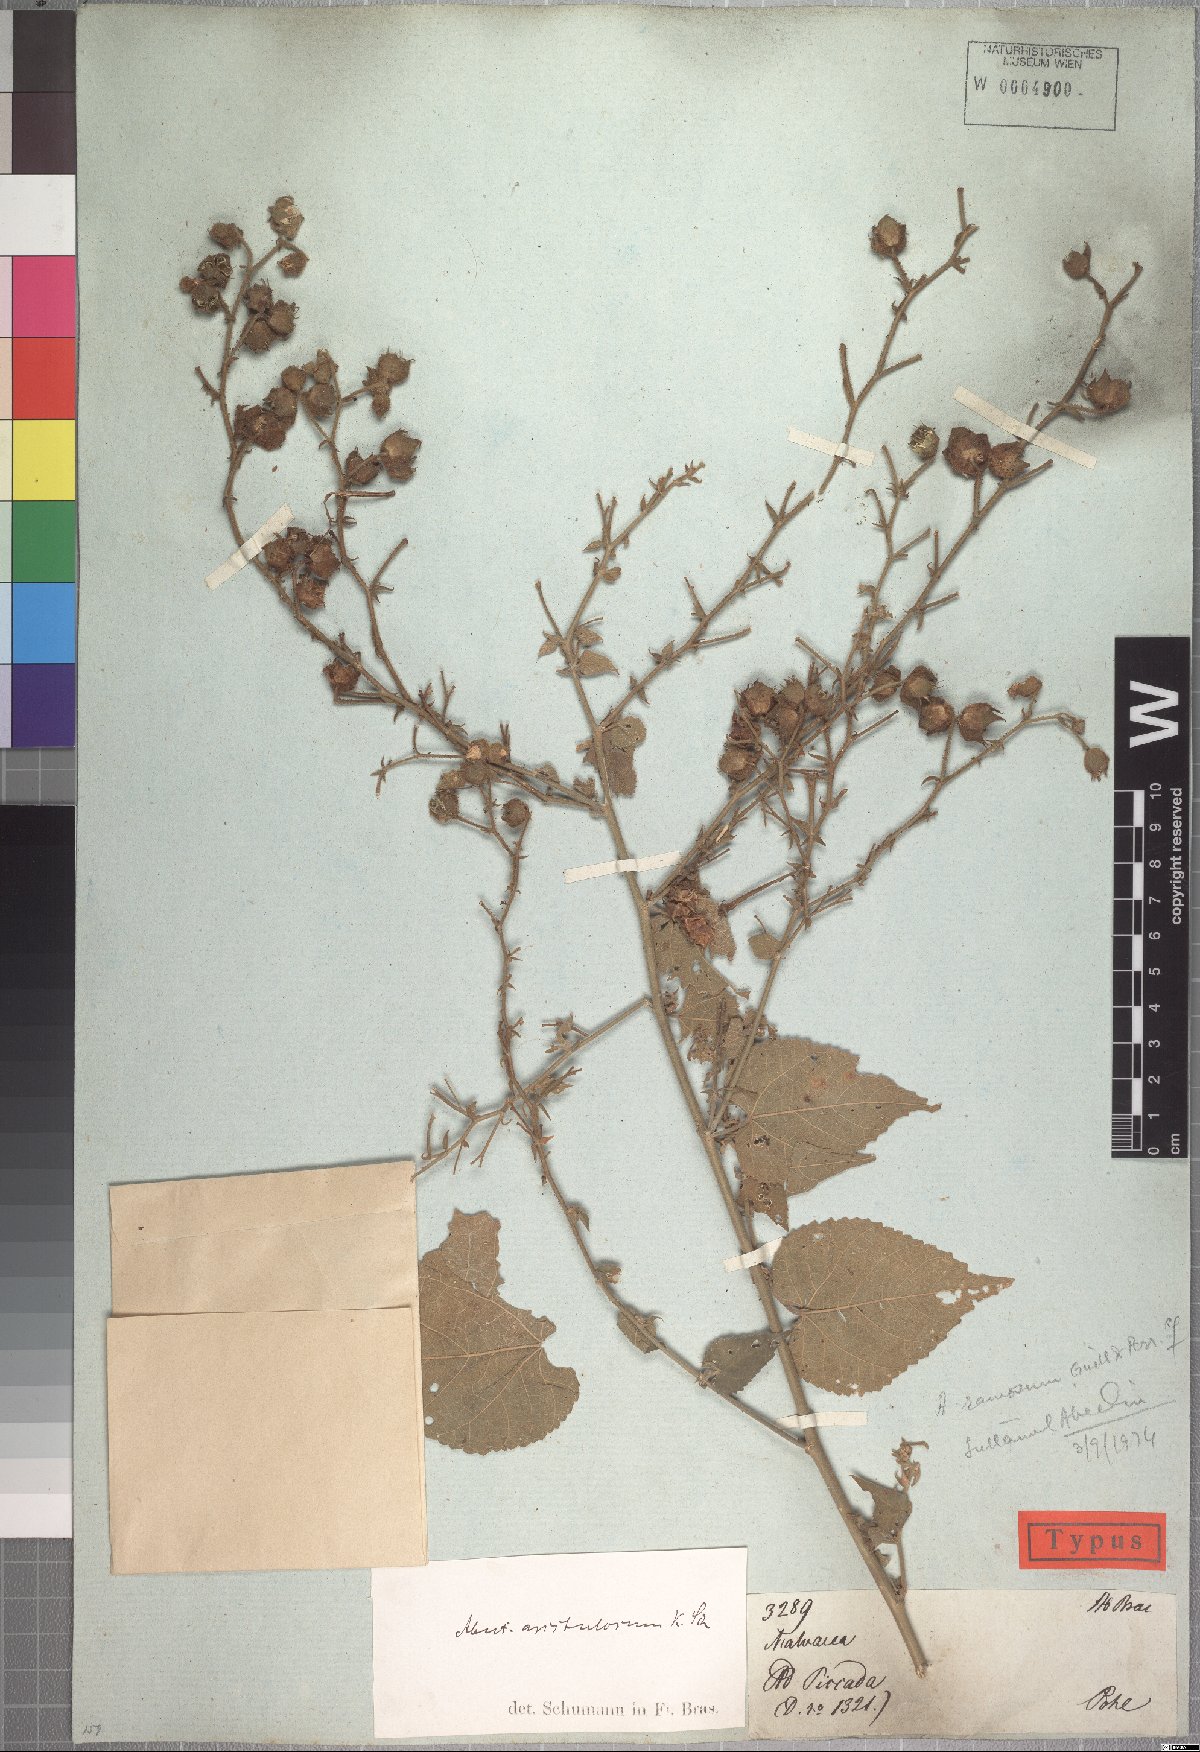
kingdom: Plantae
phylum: Tracheophyta
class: Magnoliopsida
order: Malvales
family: Malvaceae
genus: Pseudabutilon
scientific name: Pseudabutilon aristulosum
